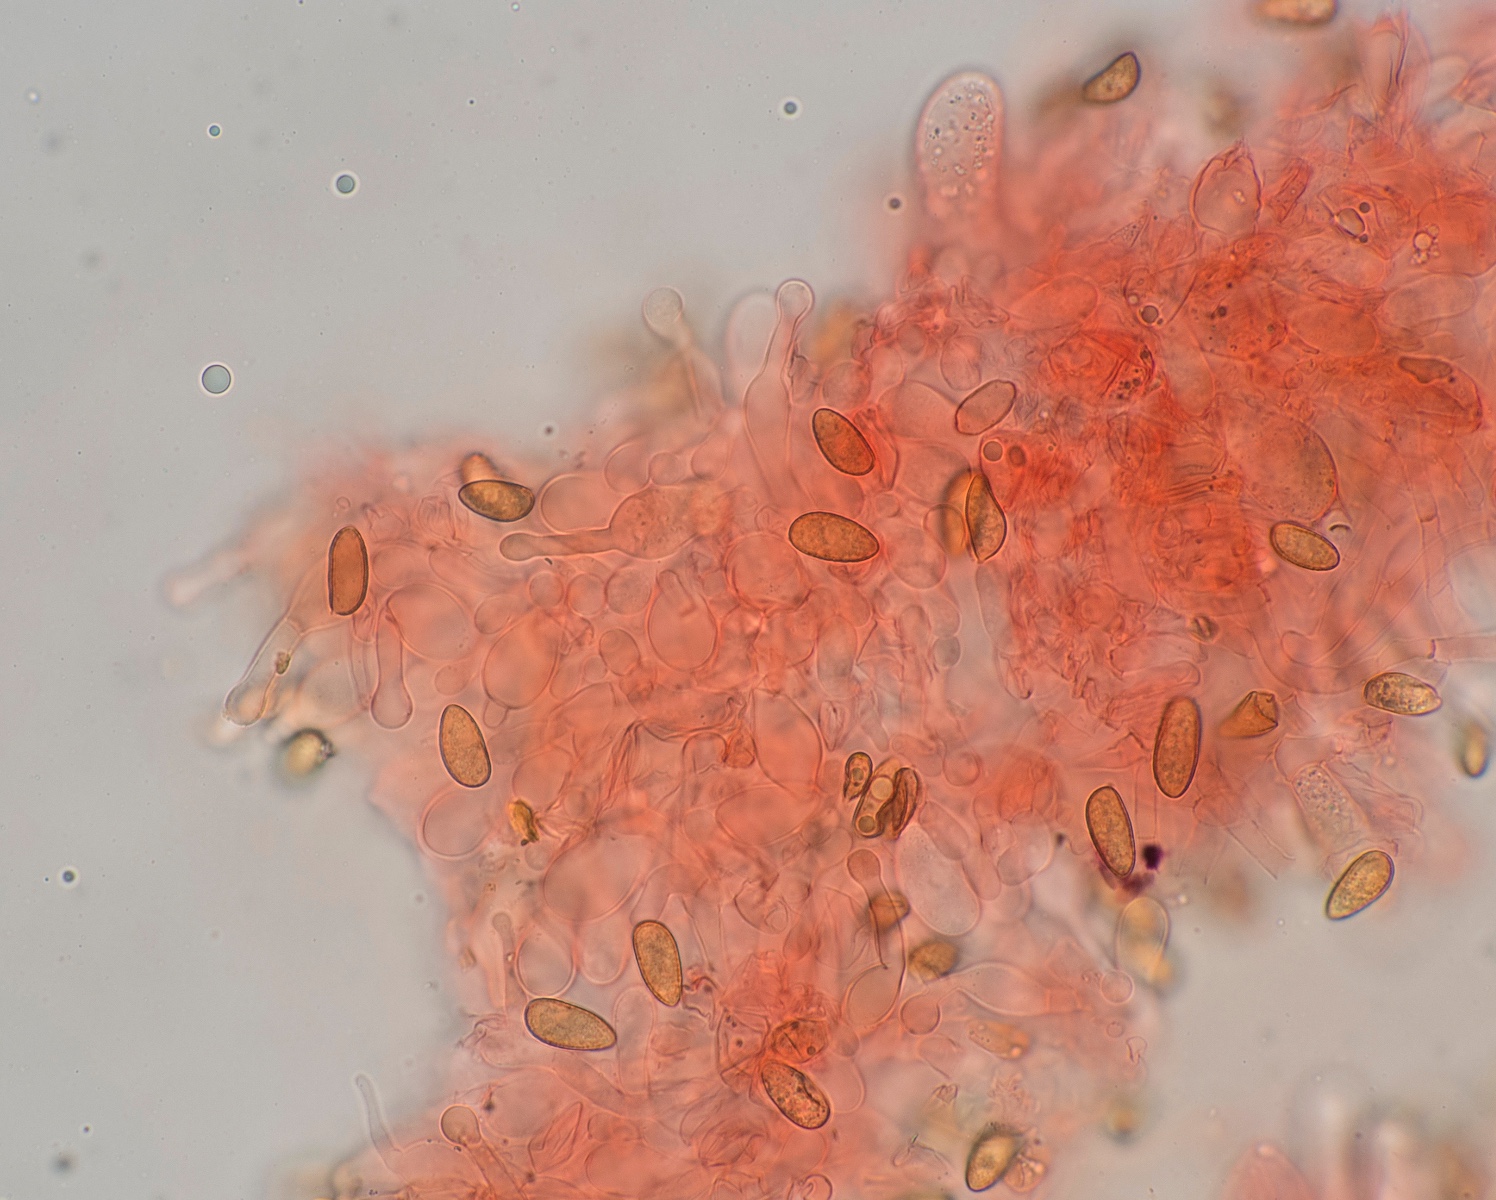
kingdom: Fungi
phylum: Basidiomycota
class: Agaricomycetes
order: Agaricales
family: Hymenogastraceae
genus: Galerina
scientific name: Galerina clavata
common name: kær-hjelmhat
